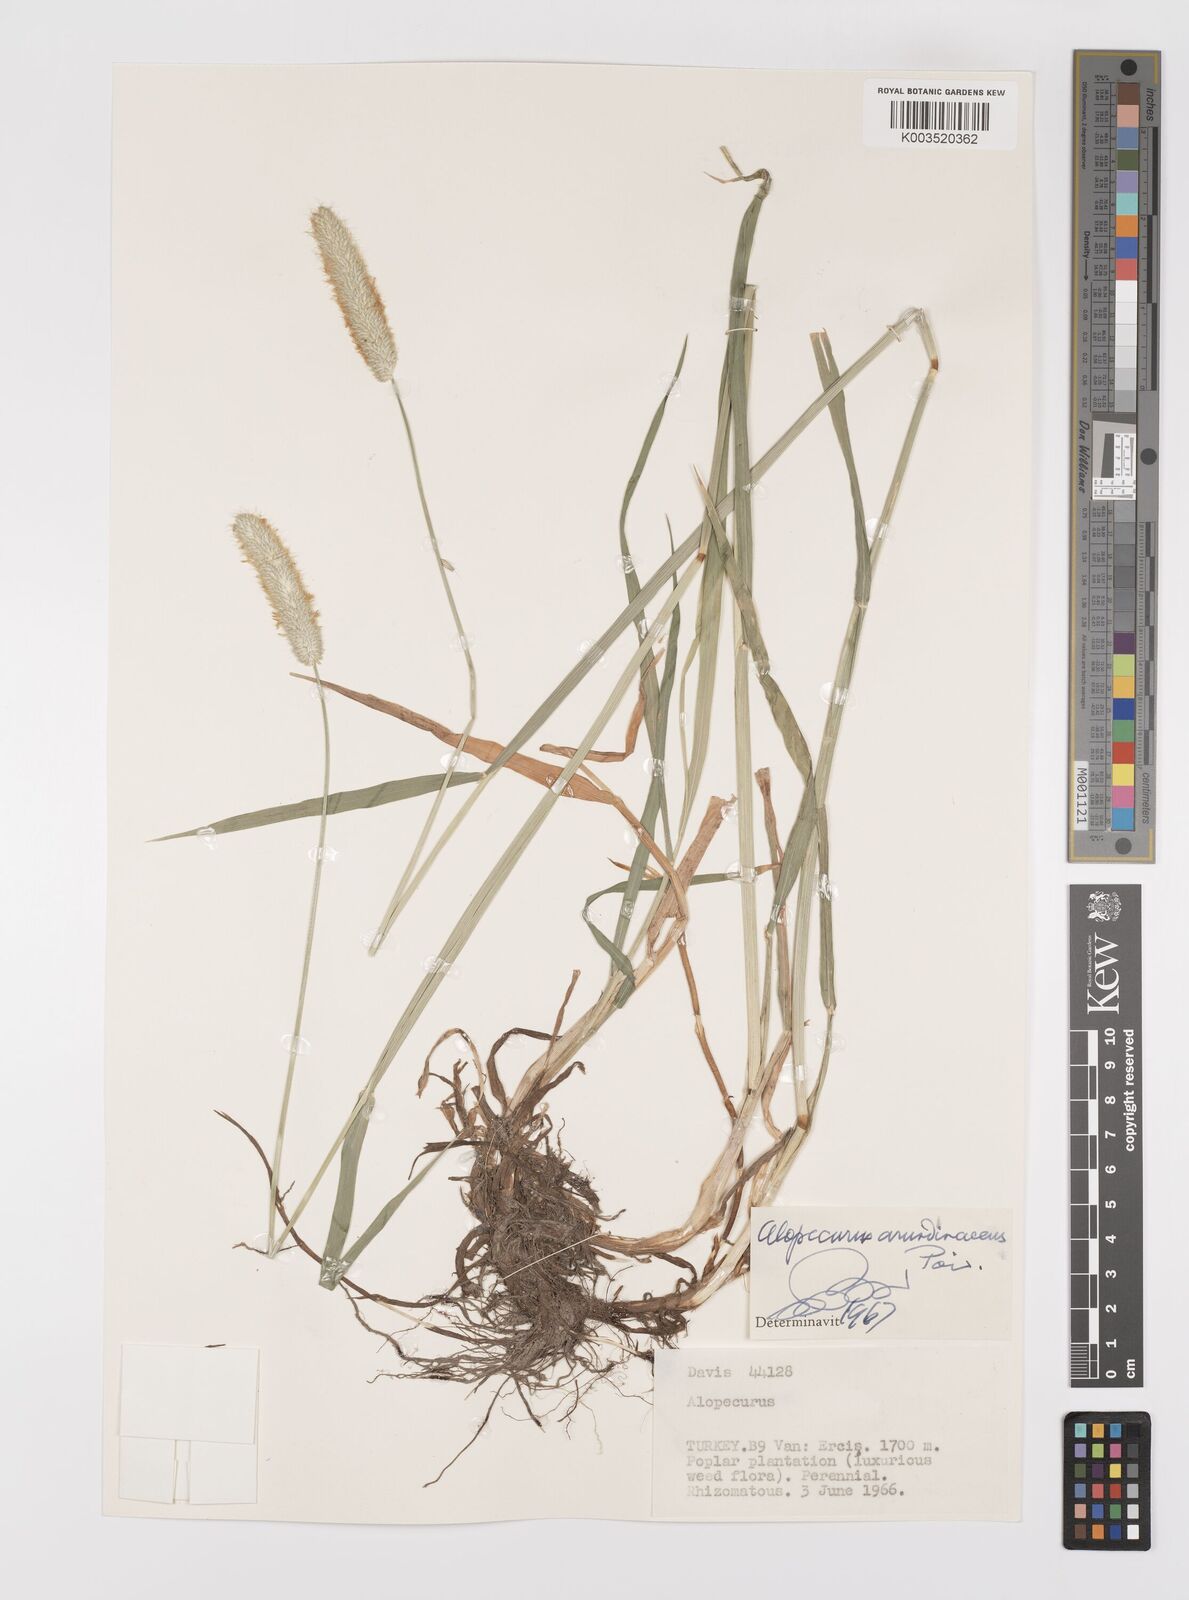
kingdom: Plantae
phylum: Tracheophyta
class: Liliopsida
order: Poales
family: Poaceae
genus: Alopecurus
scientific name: Alopecurus arundinaceus
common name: Creeping meadow foxtail
